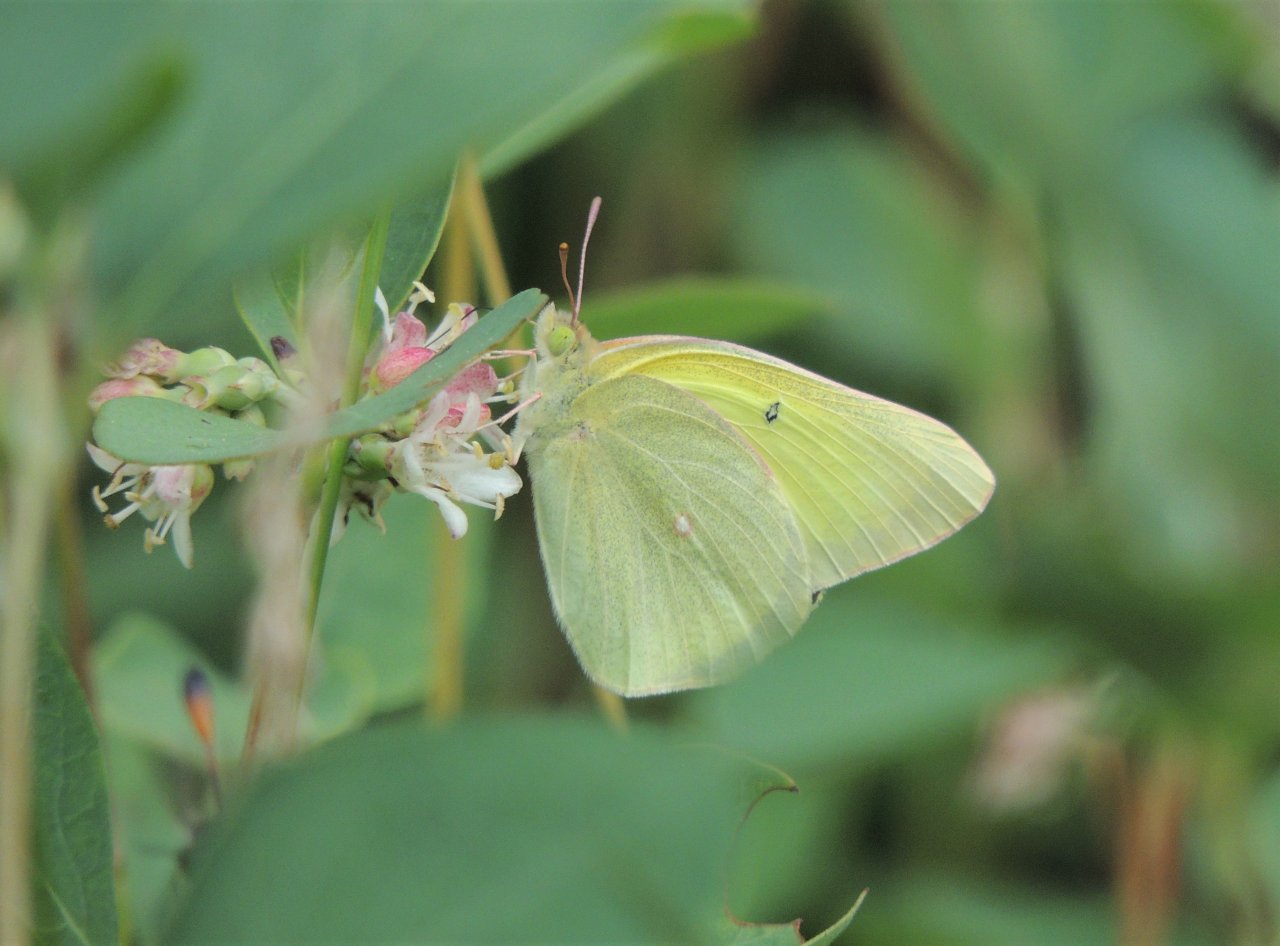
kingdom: Animalia
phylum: Arthropoda
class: Insecta
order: Lepidoptera
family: Pieridae
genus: Colias
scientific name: Colias christina
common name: Christina Sulphur
